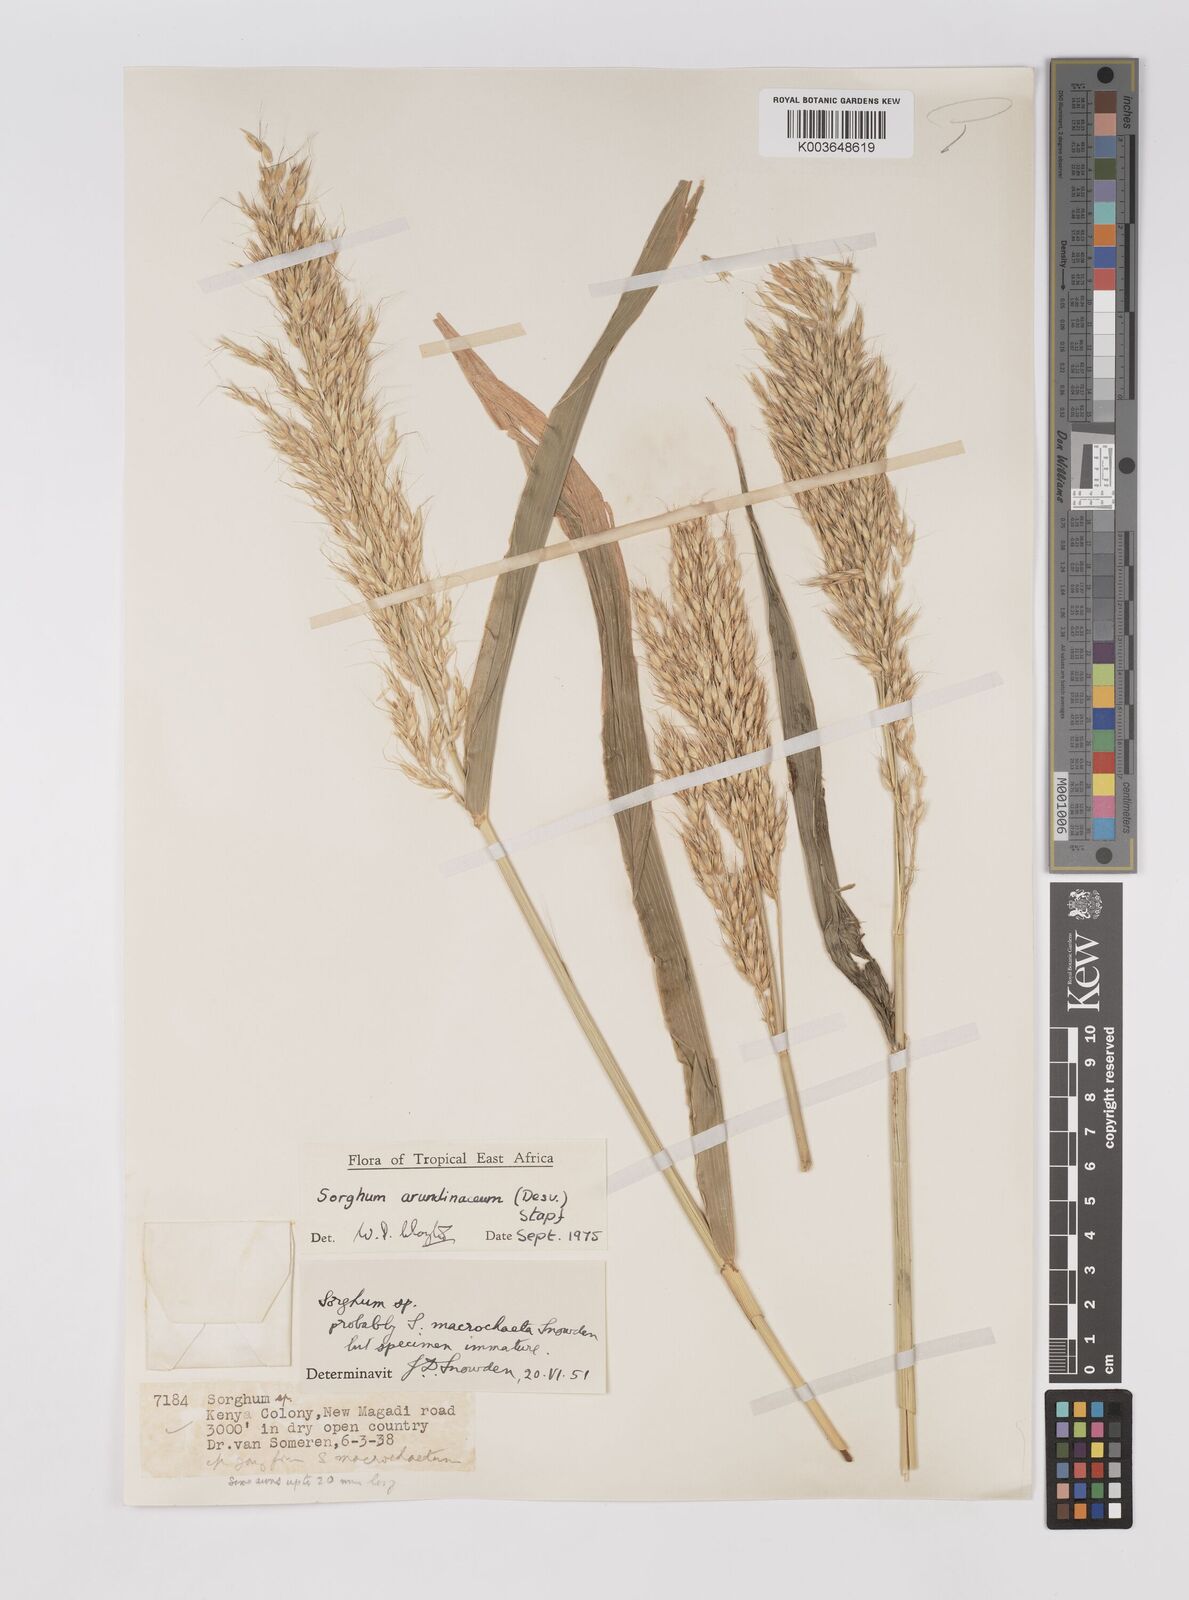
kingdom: Plantae
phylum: Tracheophyta
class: Liliopsida
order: Poales
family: Poaceae
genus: Sorghum
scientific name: Sorghum arundinaceum
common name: Sorghum
